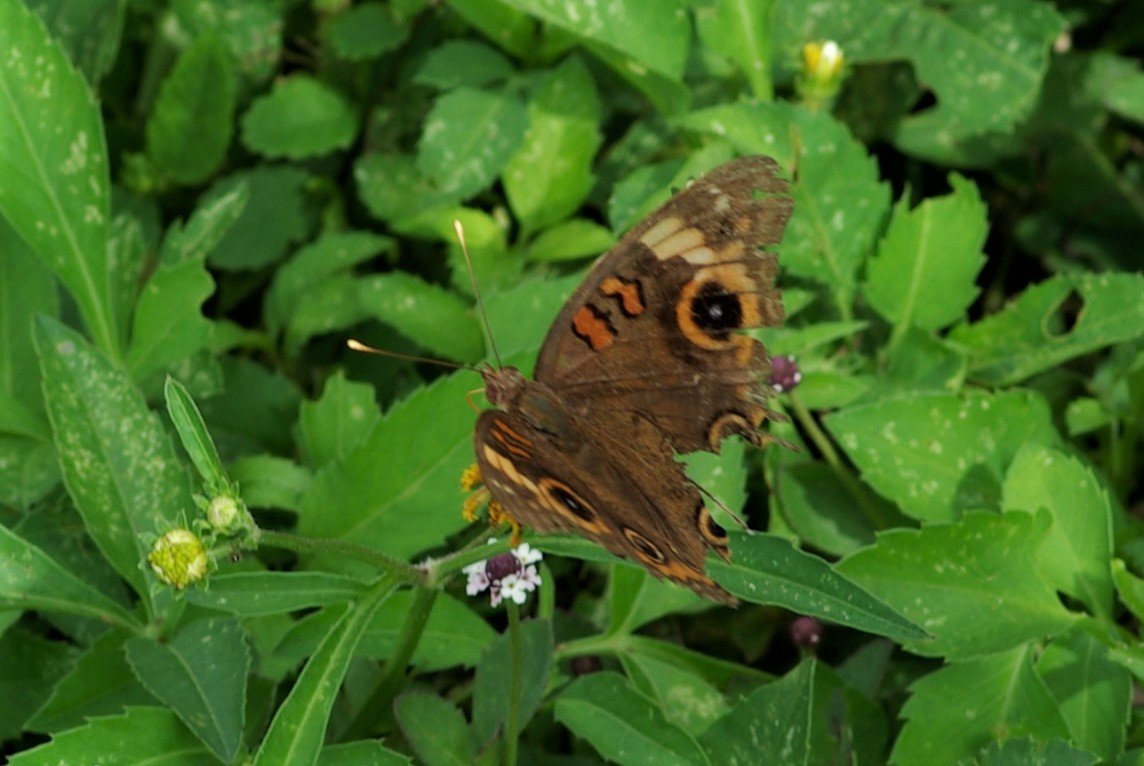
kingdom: Animalia
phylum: Arthropoda
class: Insecta
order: Lepidoptera
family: Nymphalidae
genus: Junonia
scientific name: Junonia evarete
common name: Mangrove Buckeye
